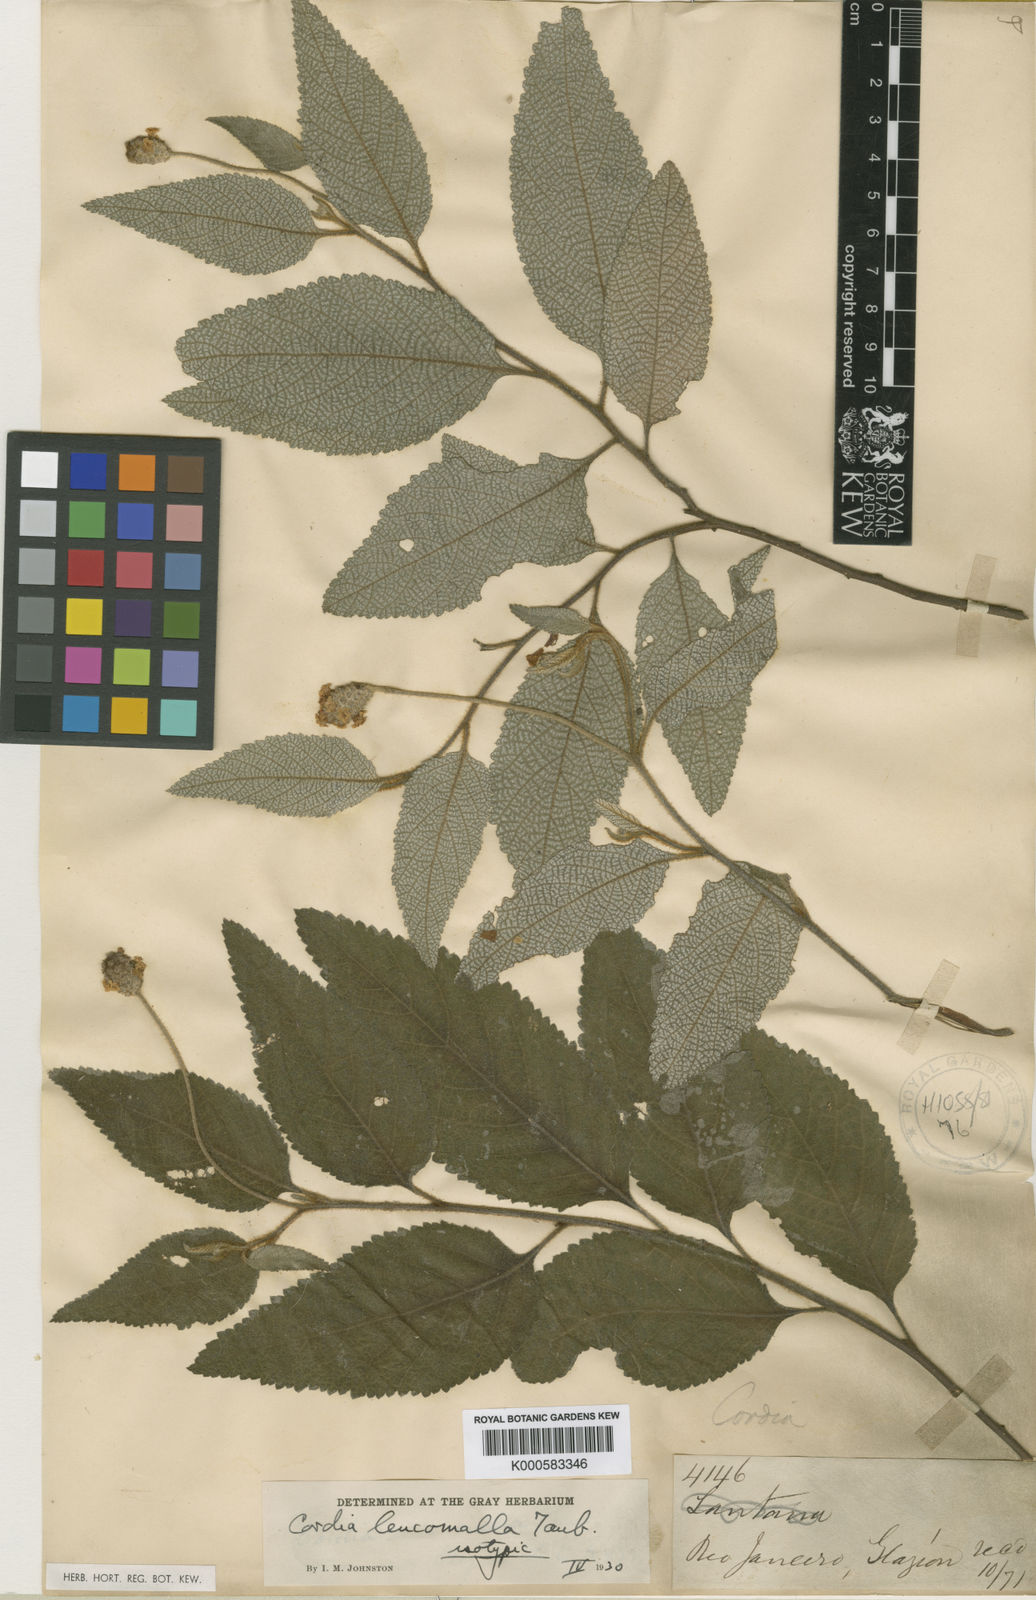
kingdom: Plantae
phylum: Tracheophyta
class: Magnoliopsida
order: Boraginales
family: Cordiaceae
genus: Varronia
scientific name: Varronia leucomalla
